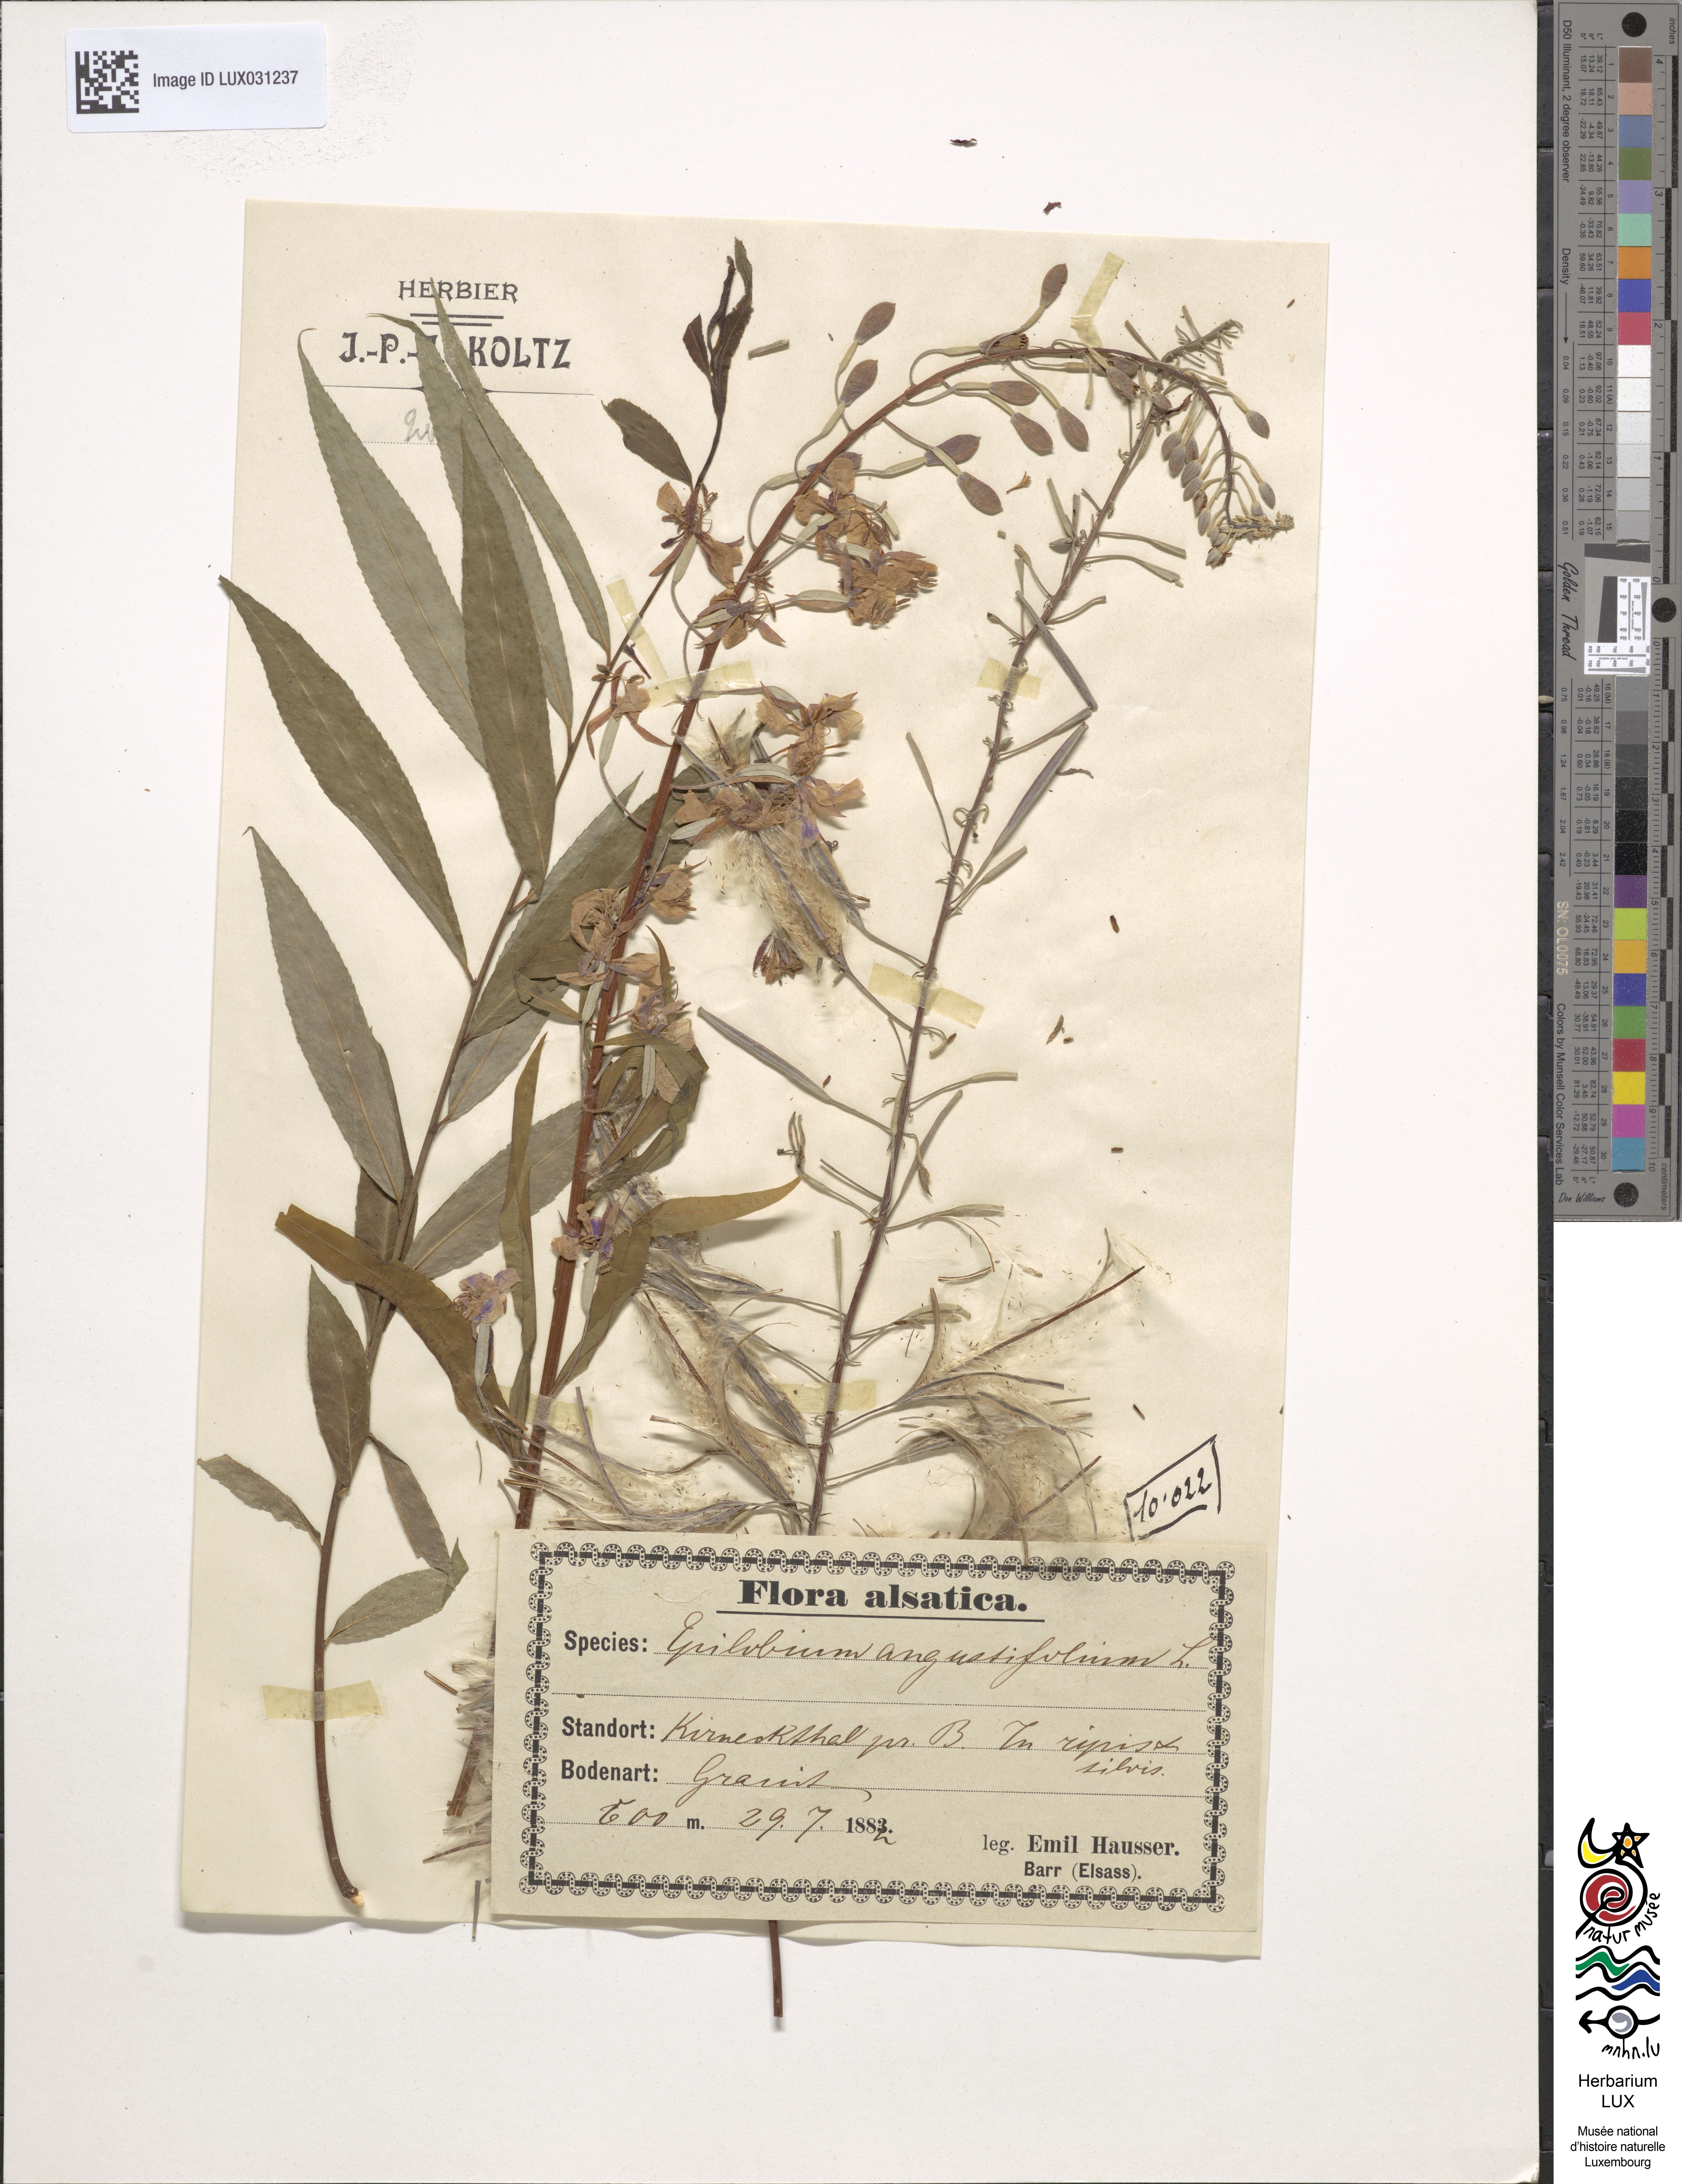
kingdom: Plantae
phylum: Tracheophyta
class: Magnoliopsida
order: Myrtales
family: Onagraceae
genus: Chamaenerion
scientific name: Chamaenerion angustifolium
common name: Fireweed
